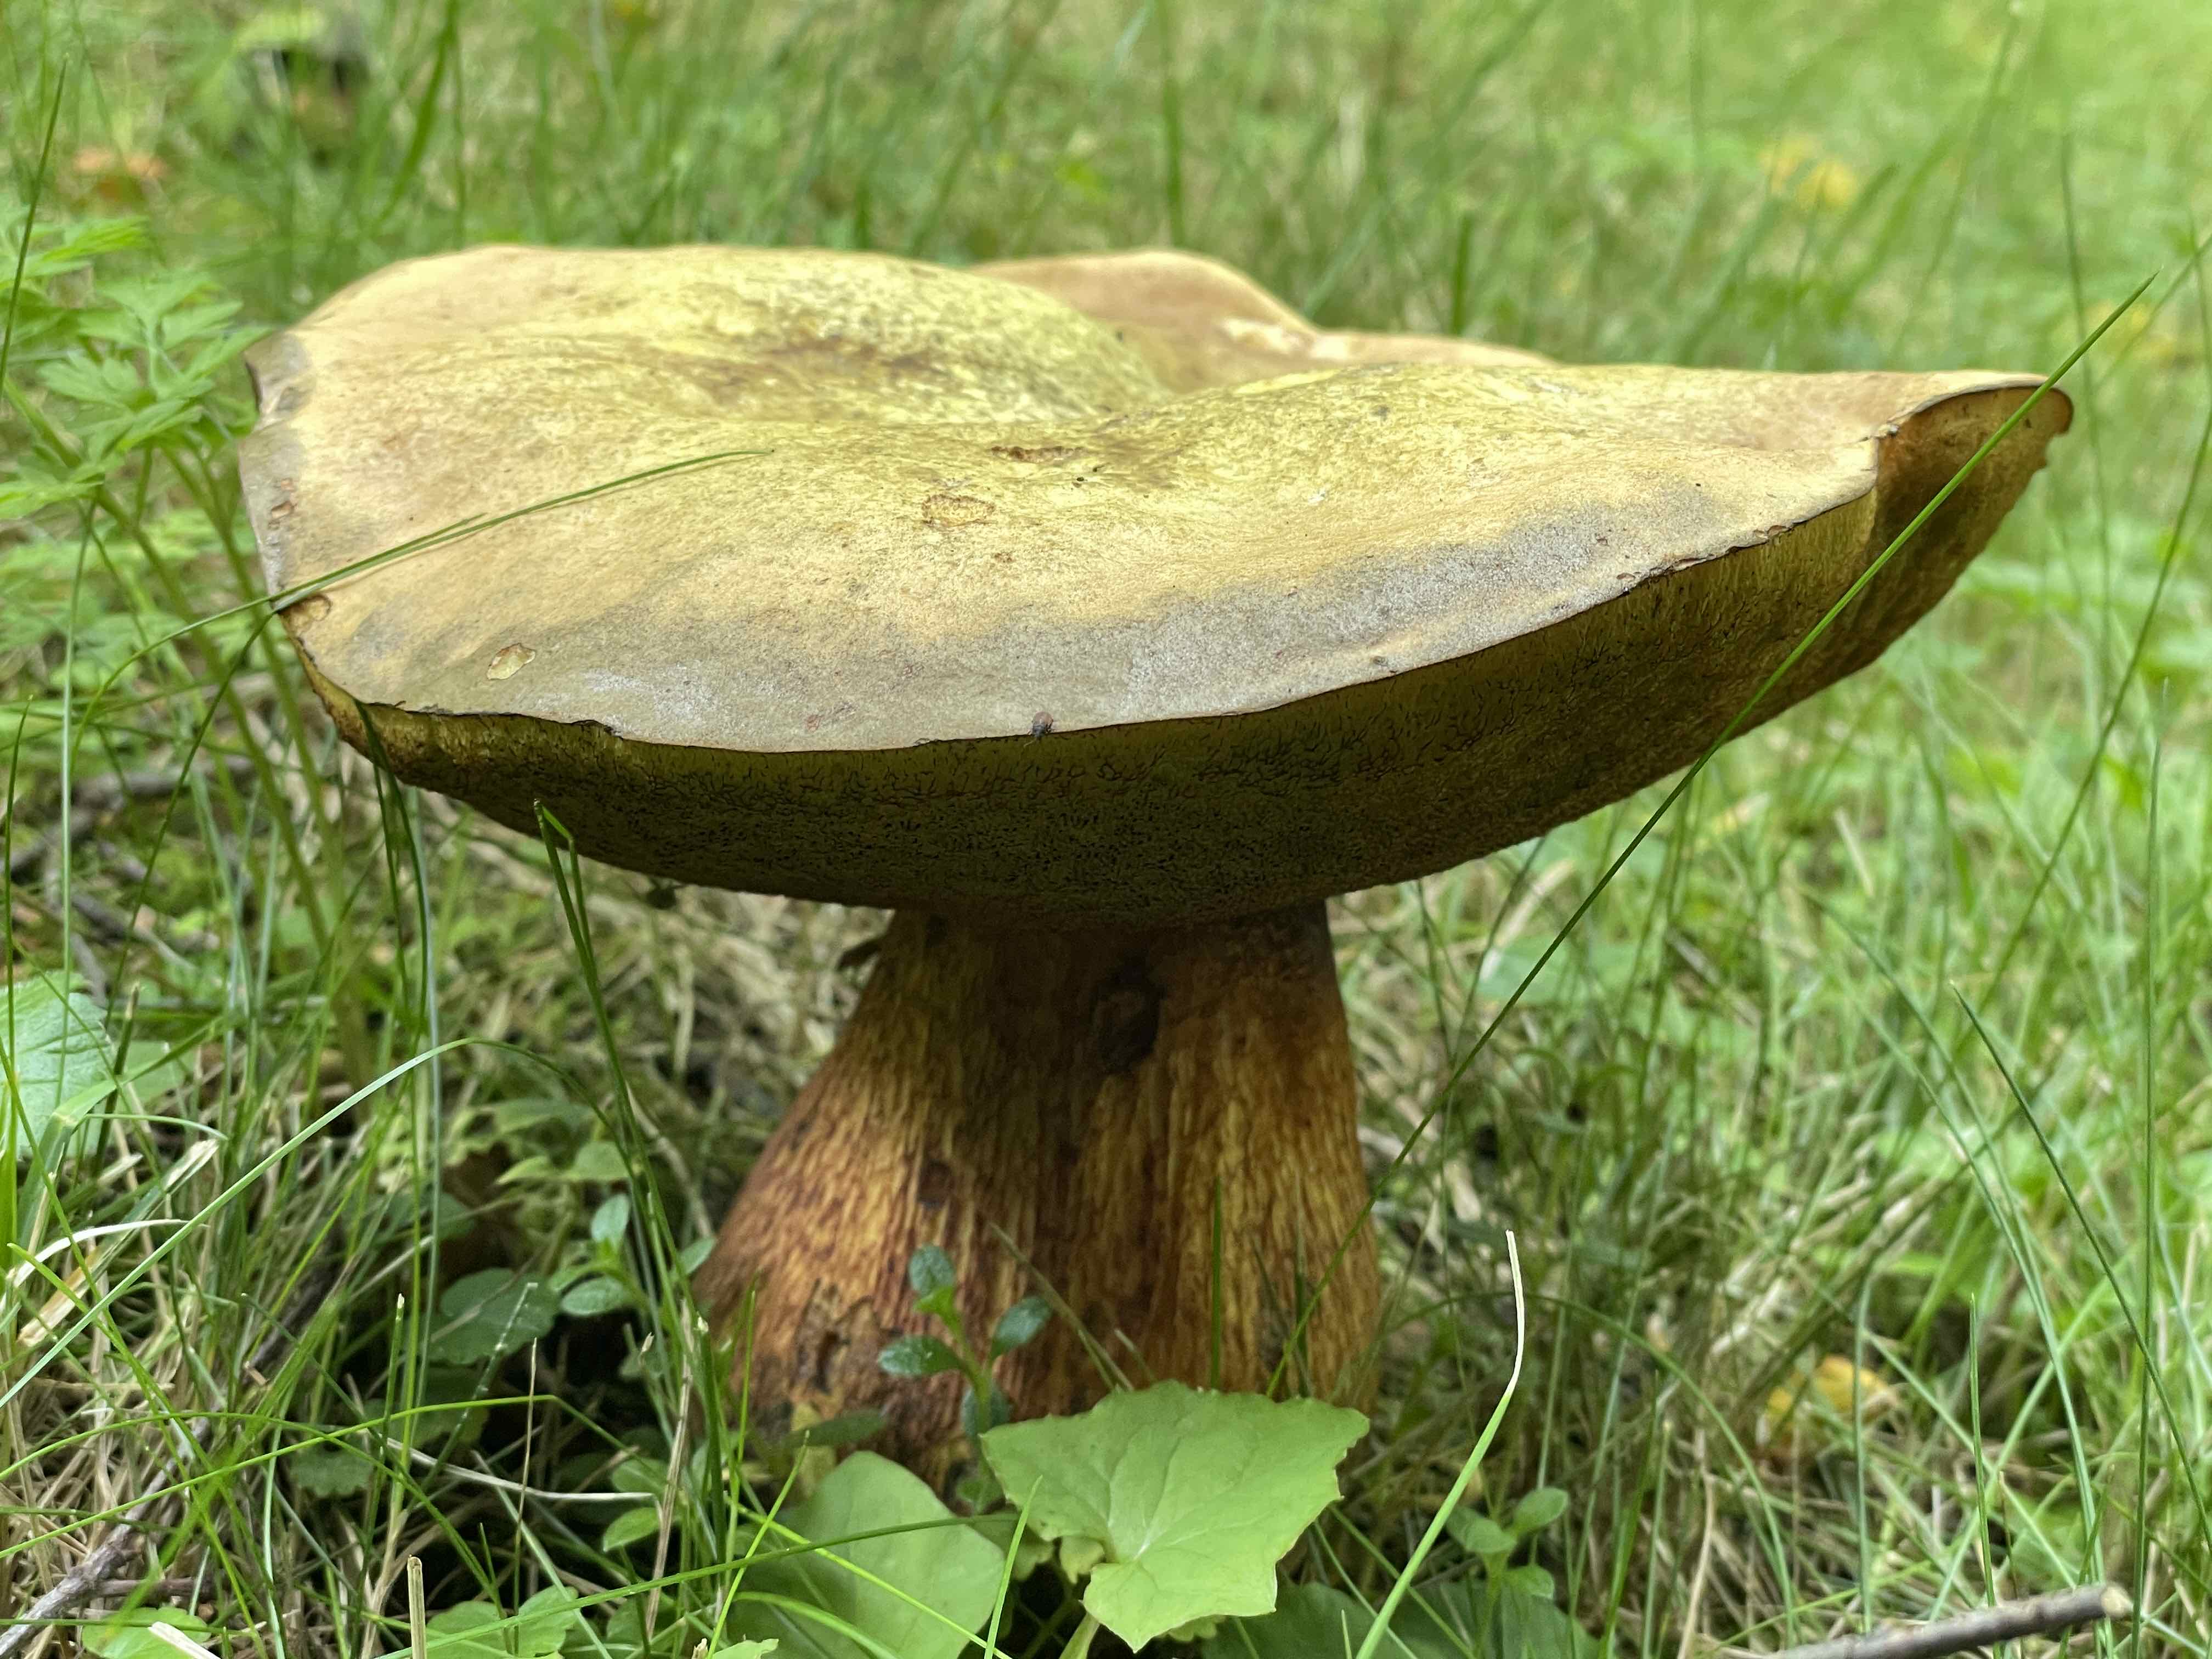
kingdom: Fungi
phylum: Basidiomycota
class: Agaricomycetes
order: Boletales
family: Boletaceae
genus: Suillellus
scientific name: Suillellus luridus
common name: netstokket indigorørhat
